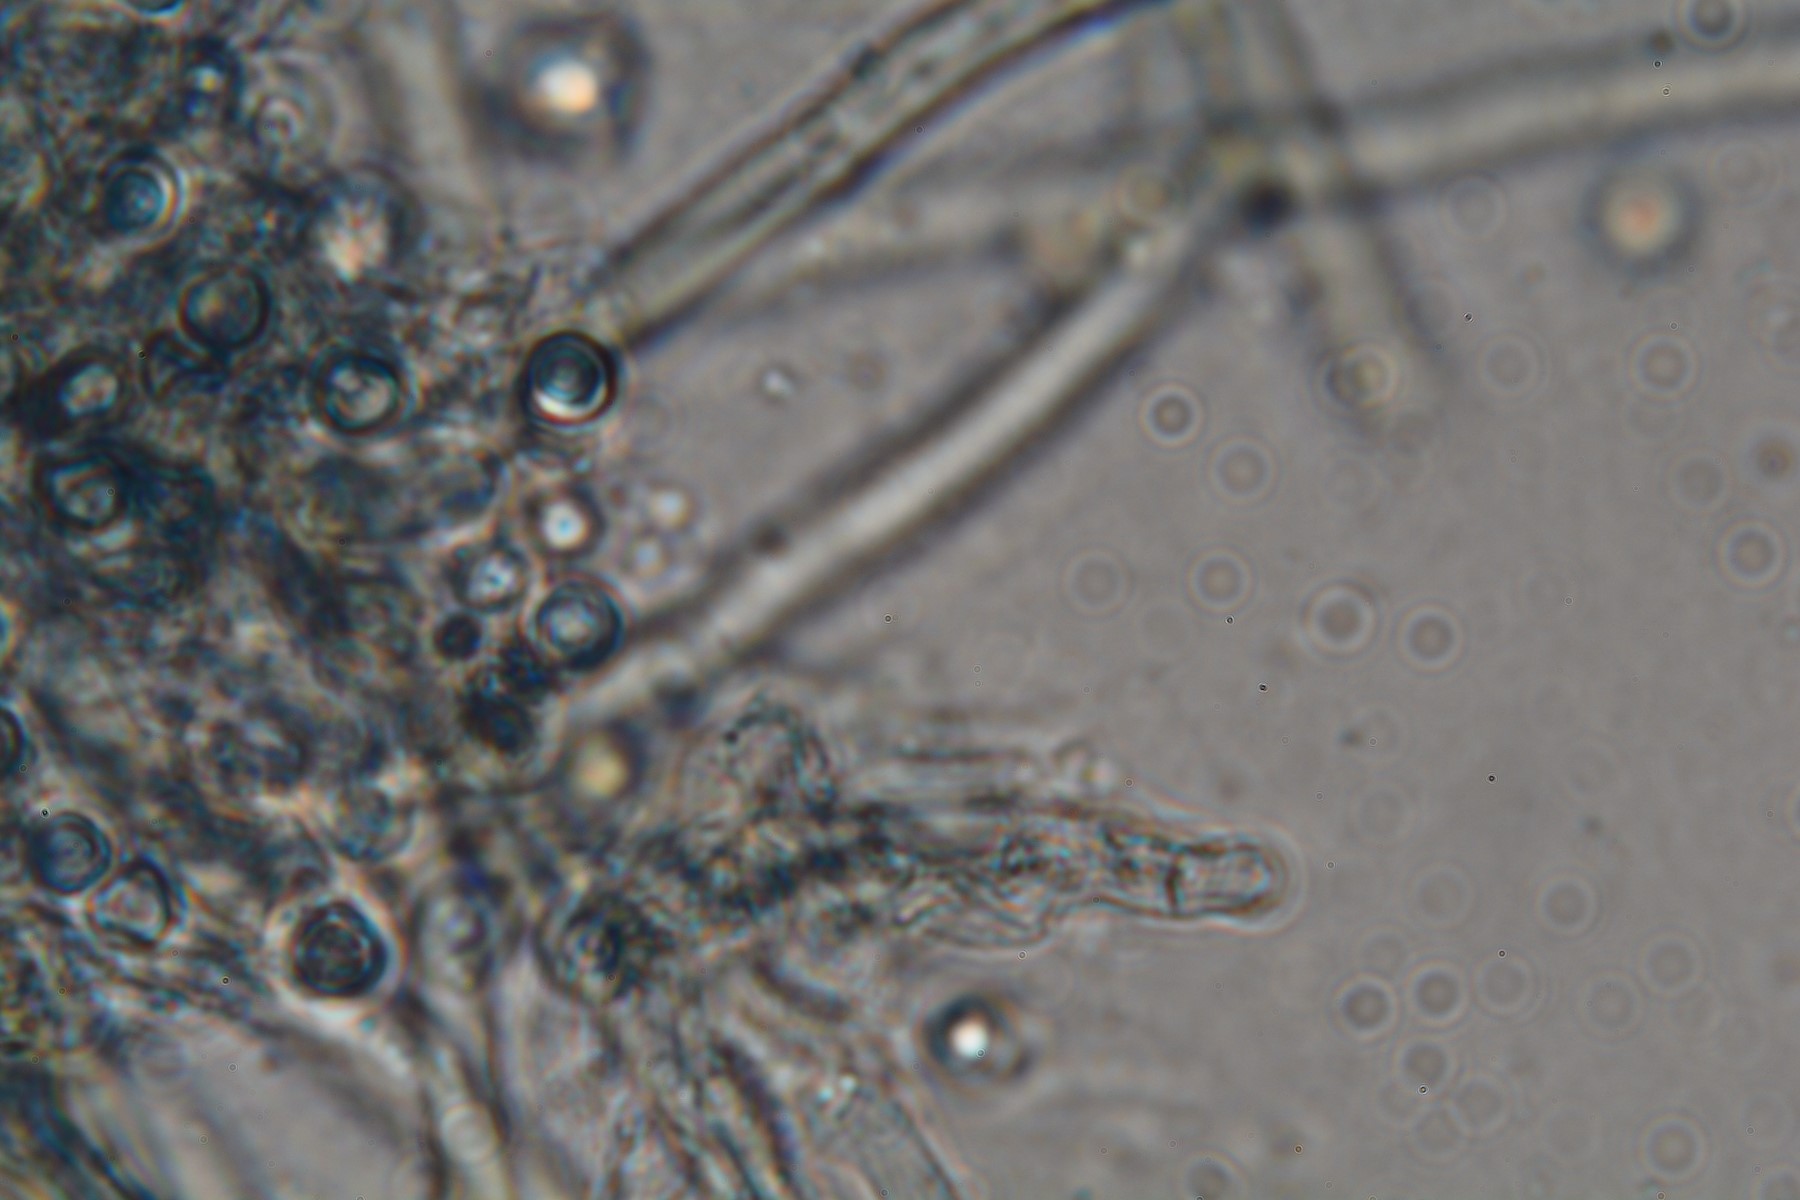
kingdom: Fungi
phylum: Basidiomycota
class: Agaricomycetes
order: Atheliales
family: Atheliaceae
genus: Byssocorticium
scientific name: Byssocorticium atrovirens
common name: blå førnehinde
